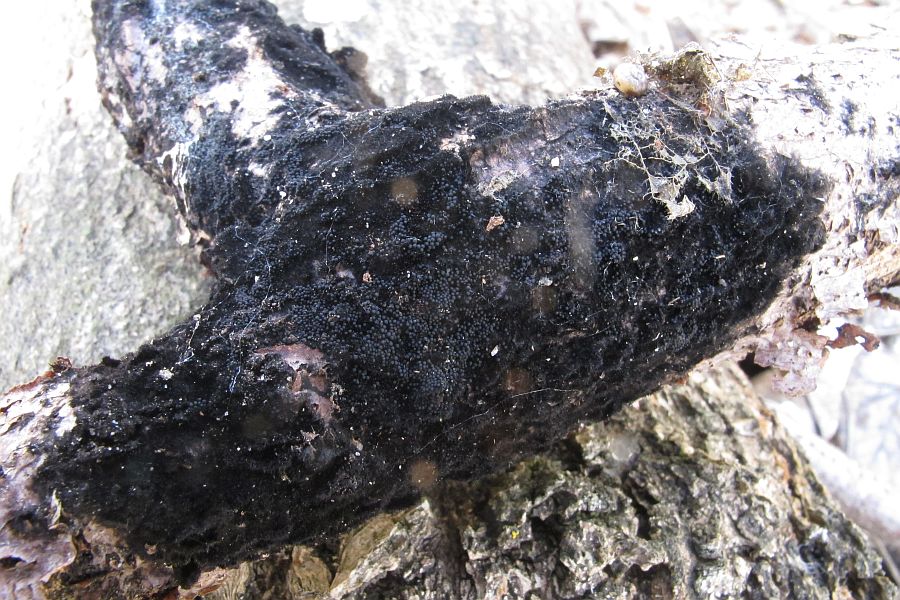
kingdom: Fungi
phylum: Ascomycota
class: Sordariomycetes
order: Coronophorales
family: Chaetosphaerellaceae
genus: Chaetosphaerella
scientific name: Chaetosphaerella phaeostroma
